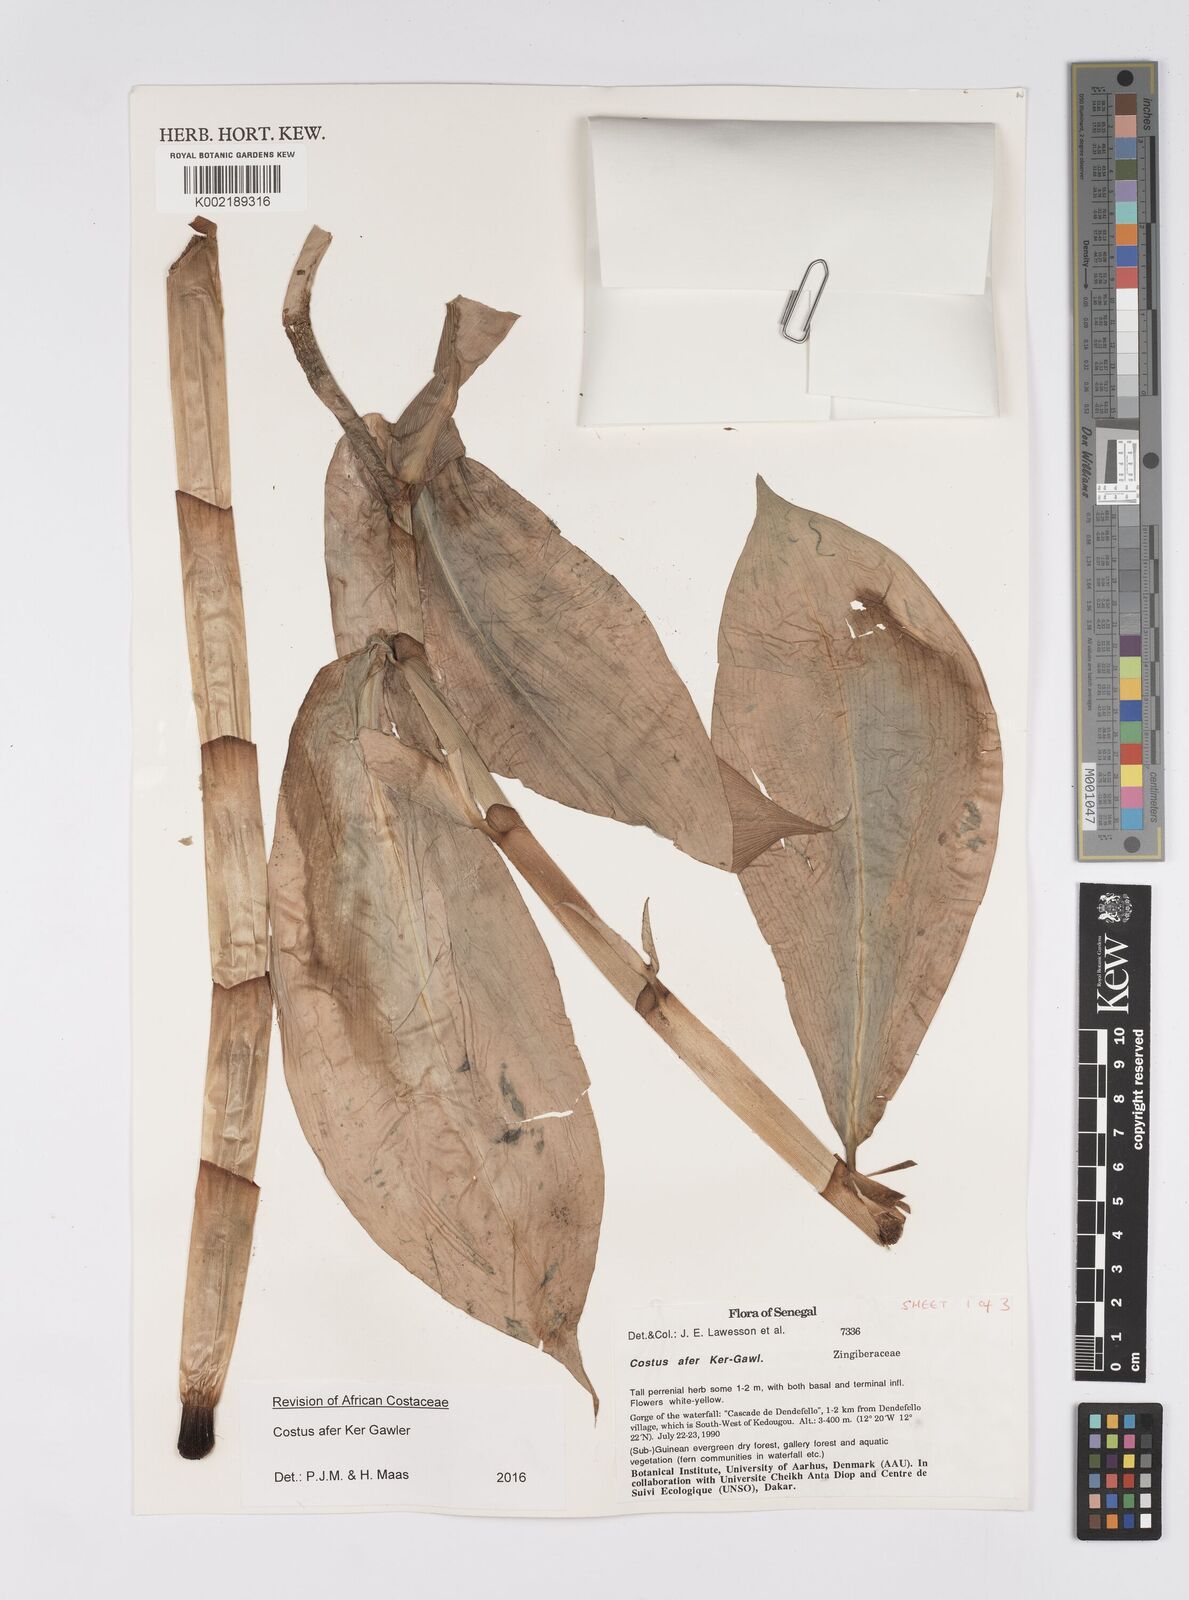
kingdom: Plantae
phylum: Tracheophyta
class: Liliopsida
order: Zingiberales
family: Costaceae
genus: Costus
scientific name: Costus afer
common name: Spiral-ginger
